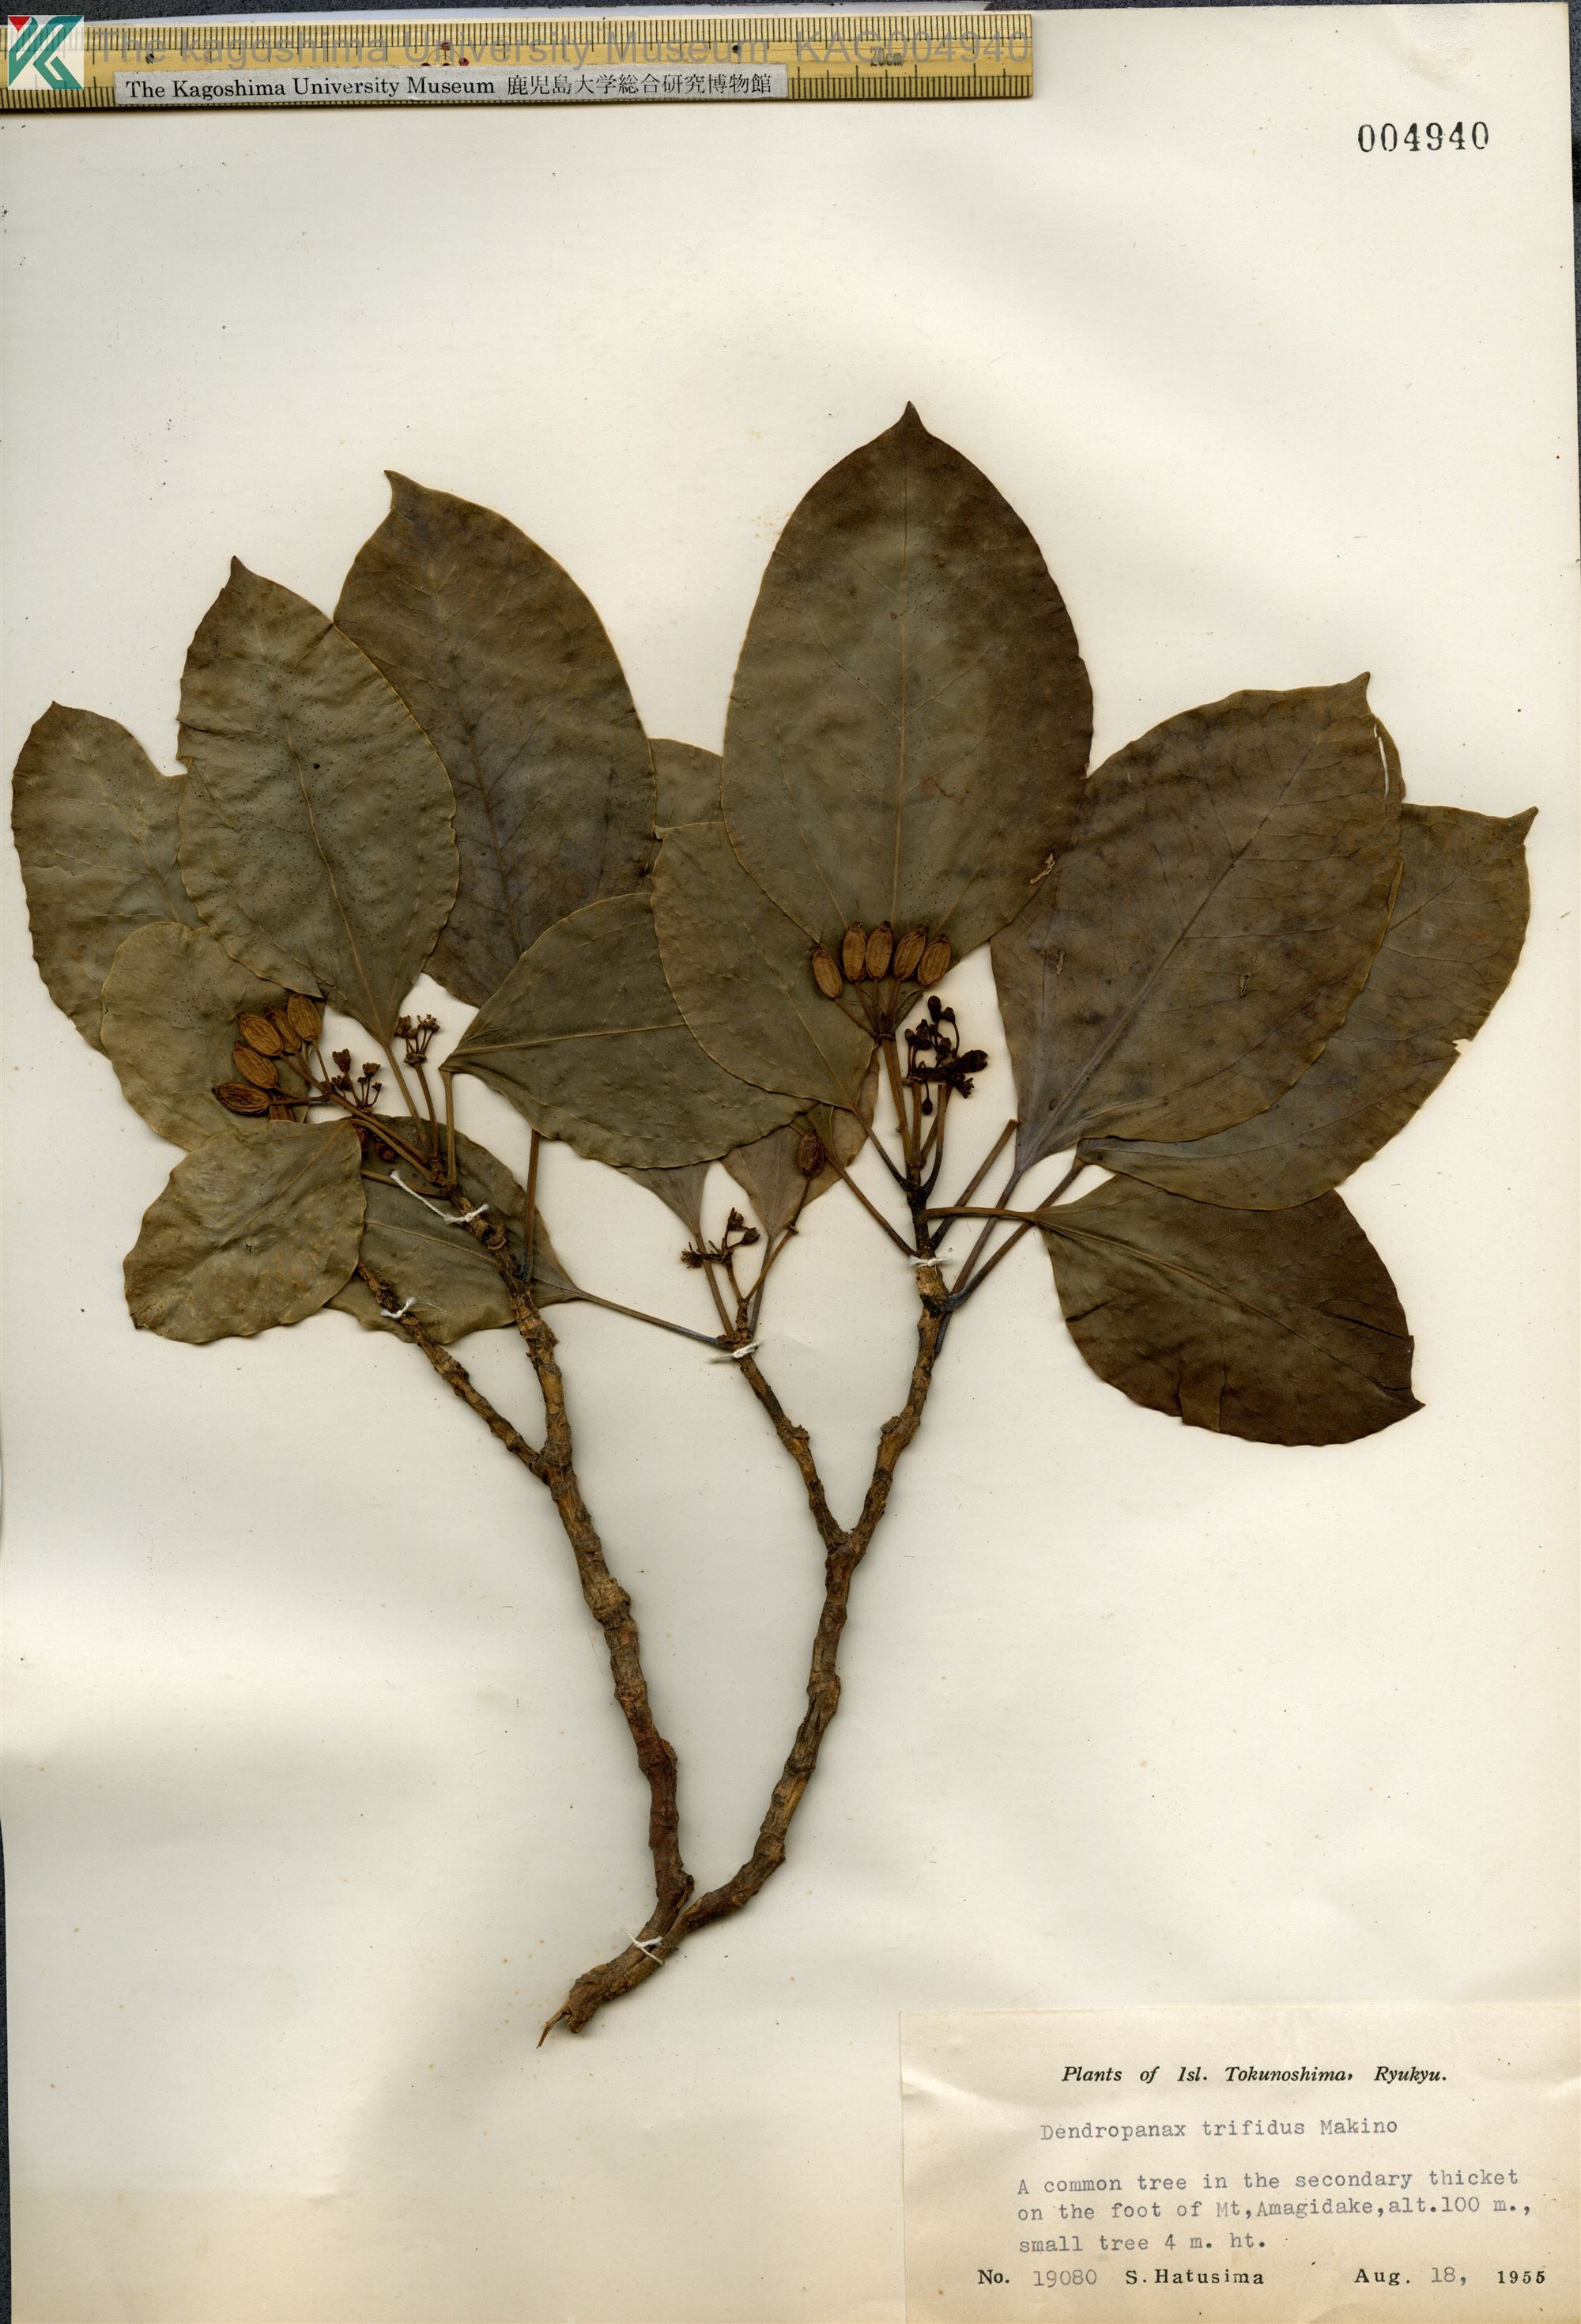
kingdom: Plantae
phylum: Tracheophyta
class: Magnoliopsida
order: Apiales
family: Araliaceae
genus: Dendropanax
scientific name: Dendropanax trifidus
